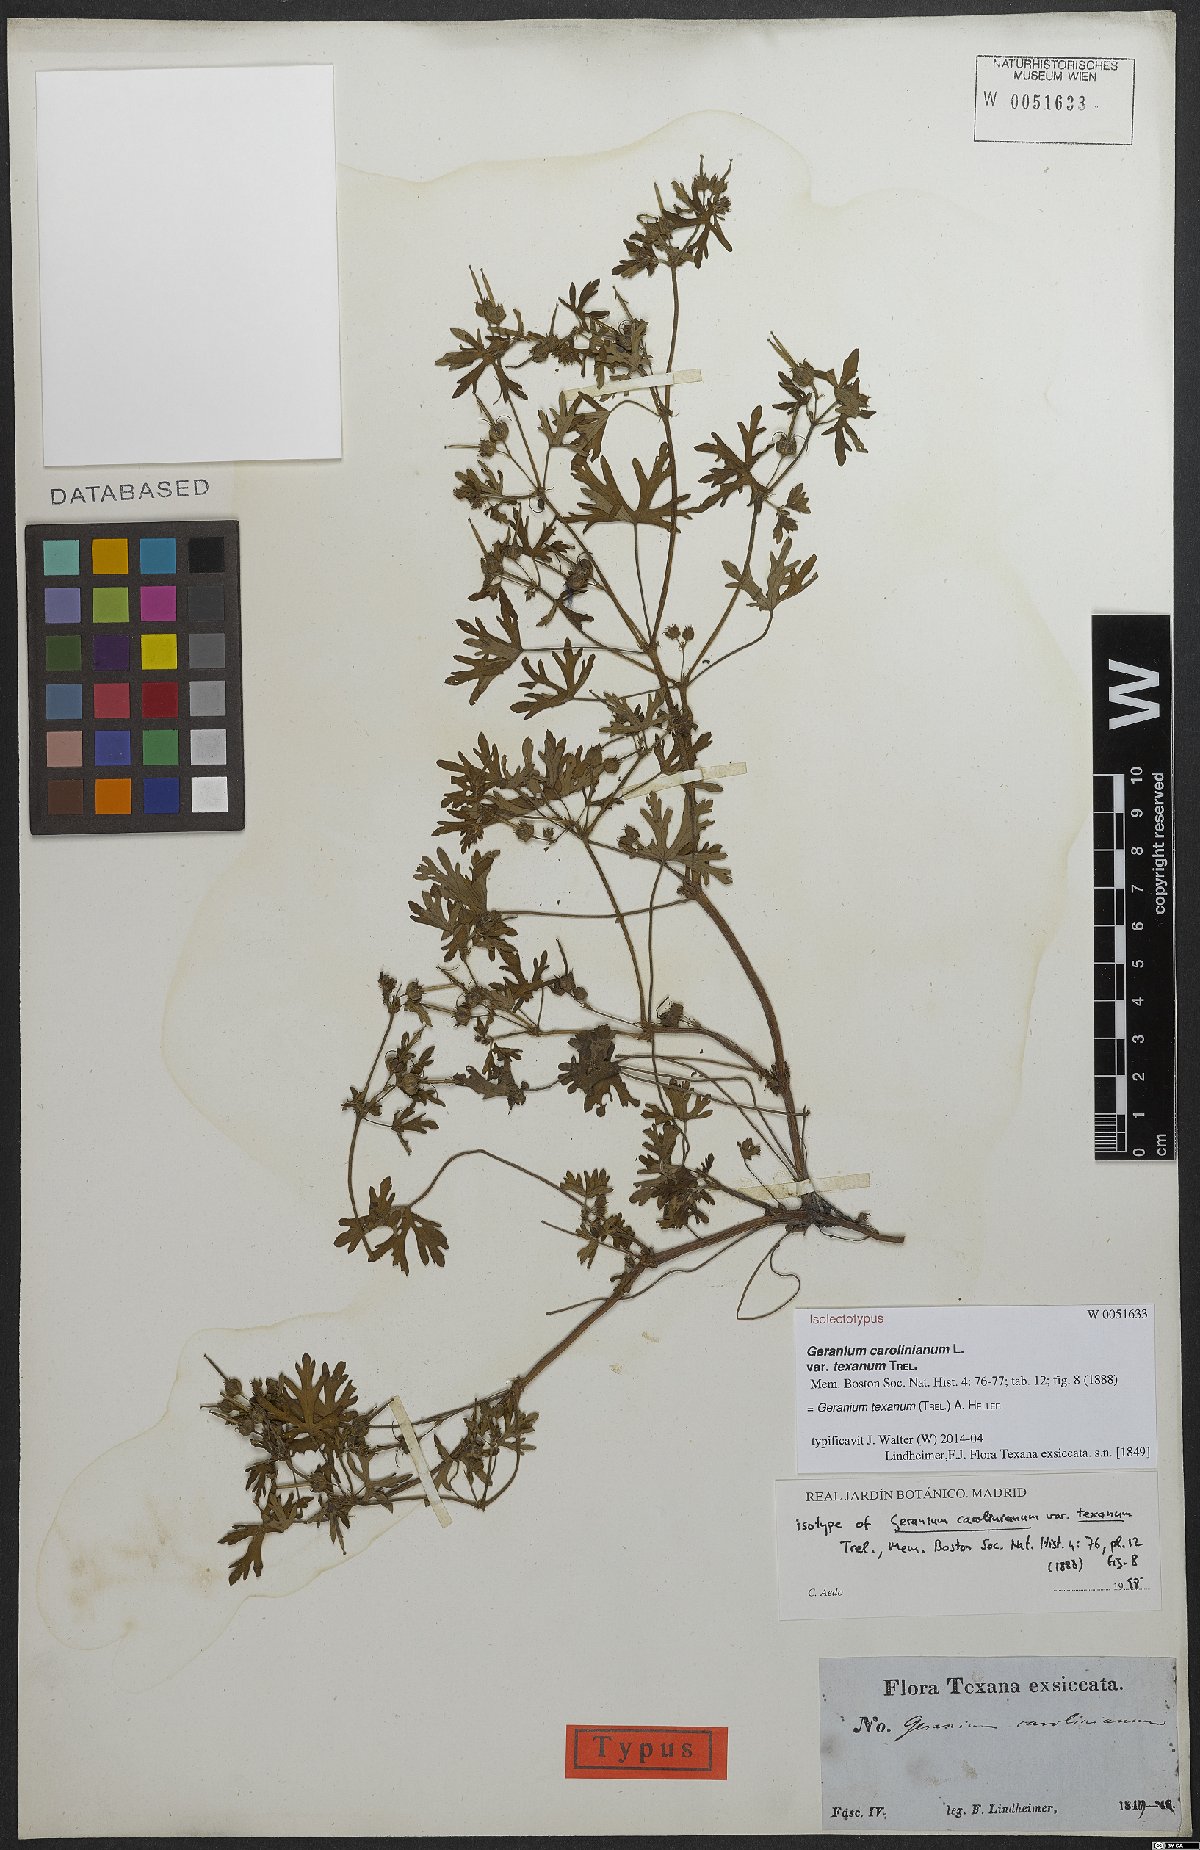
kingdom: Plantae
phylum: Tracheophyta
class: Magnoliopsida
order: Geraniales
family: Geraniaceae
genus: Geranium
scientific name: Geranium texanum
